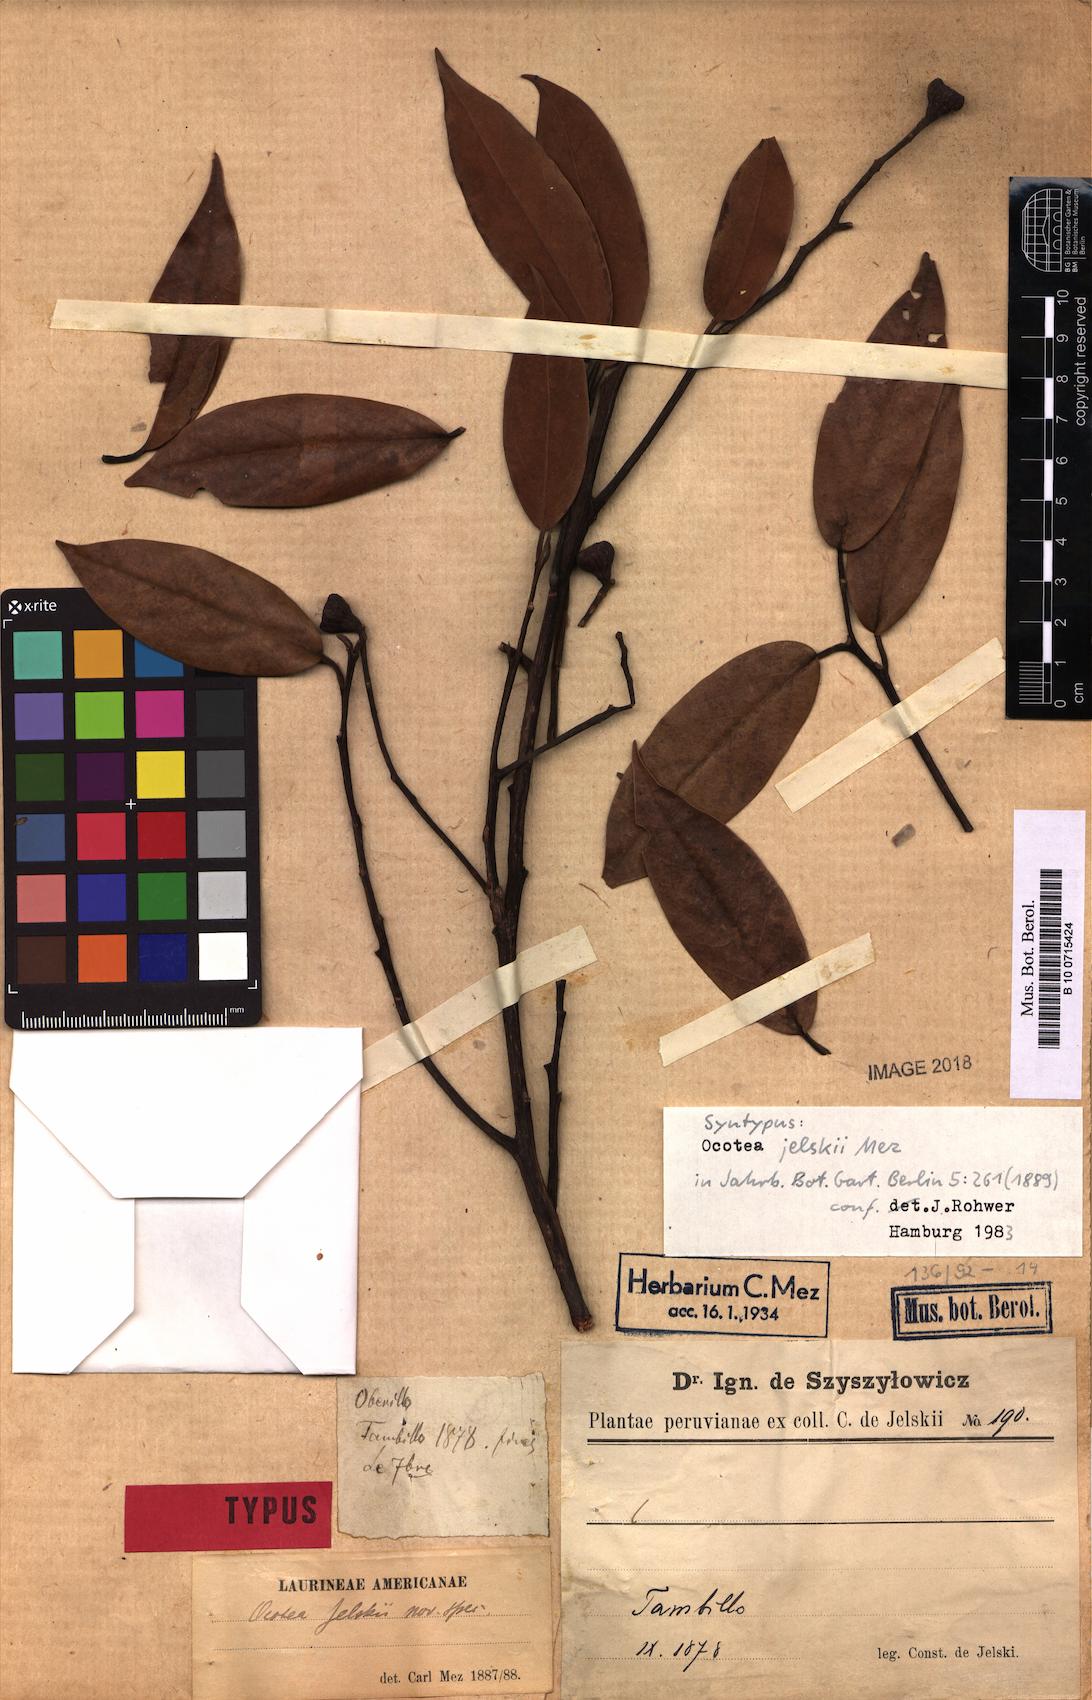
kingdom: Plantae
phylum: Tracheophyta
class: Magnoliopsida
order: Laurales
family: Lauraceae
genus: Ocotea
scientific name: Ocotea jelskii
